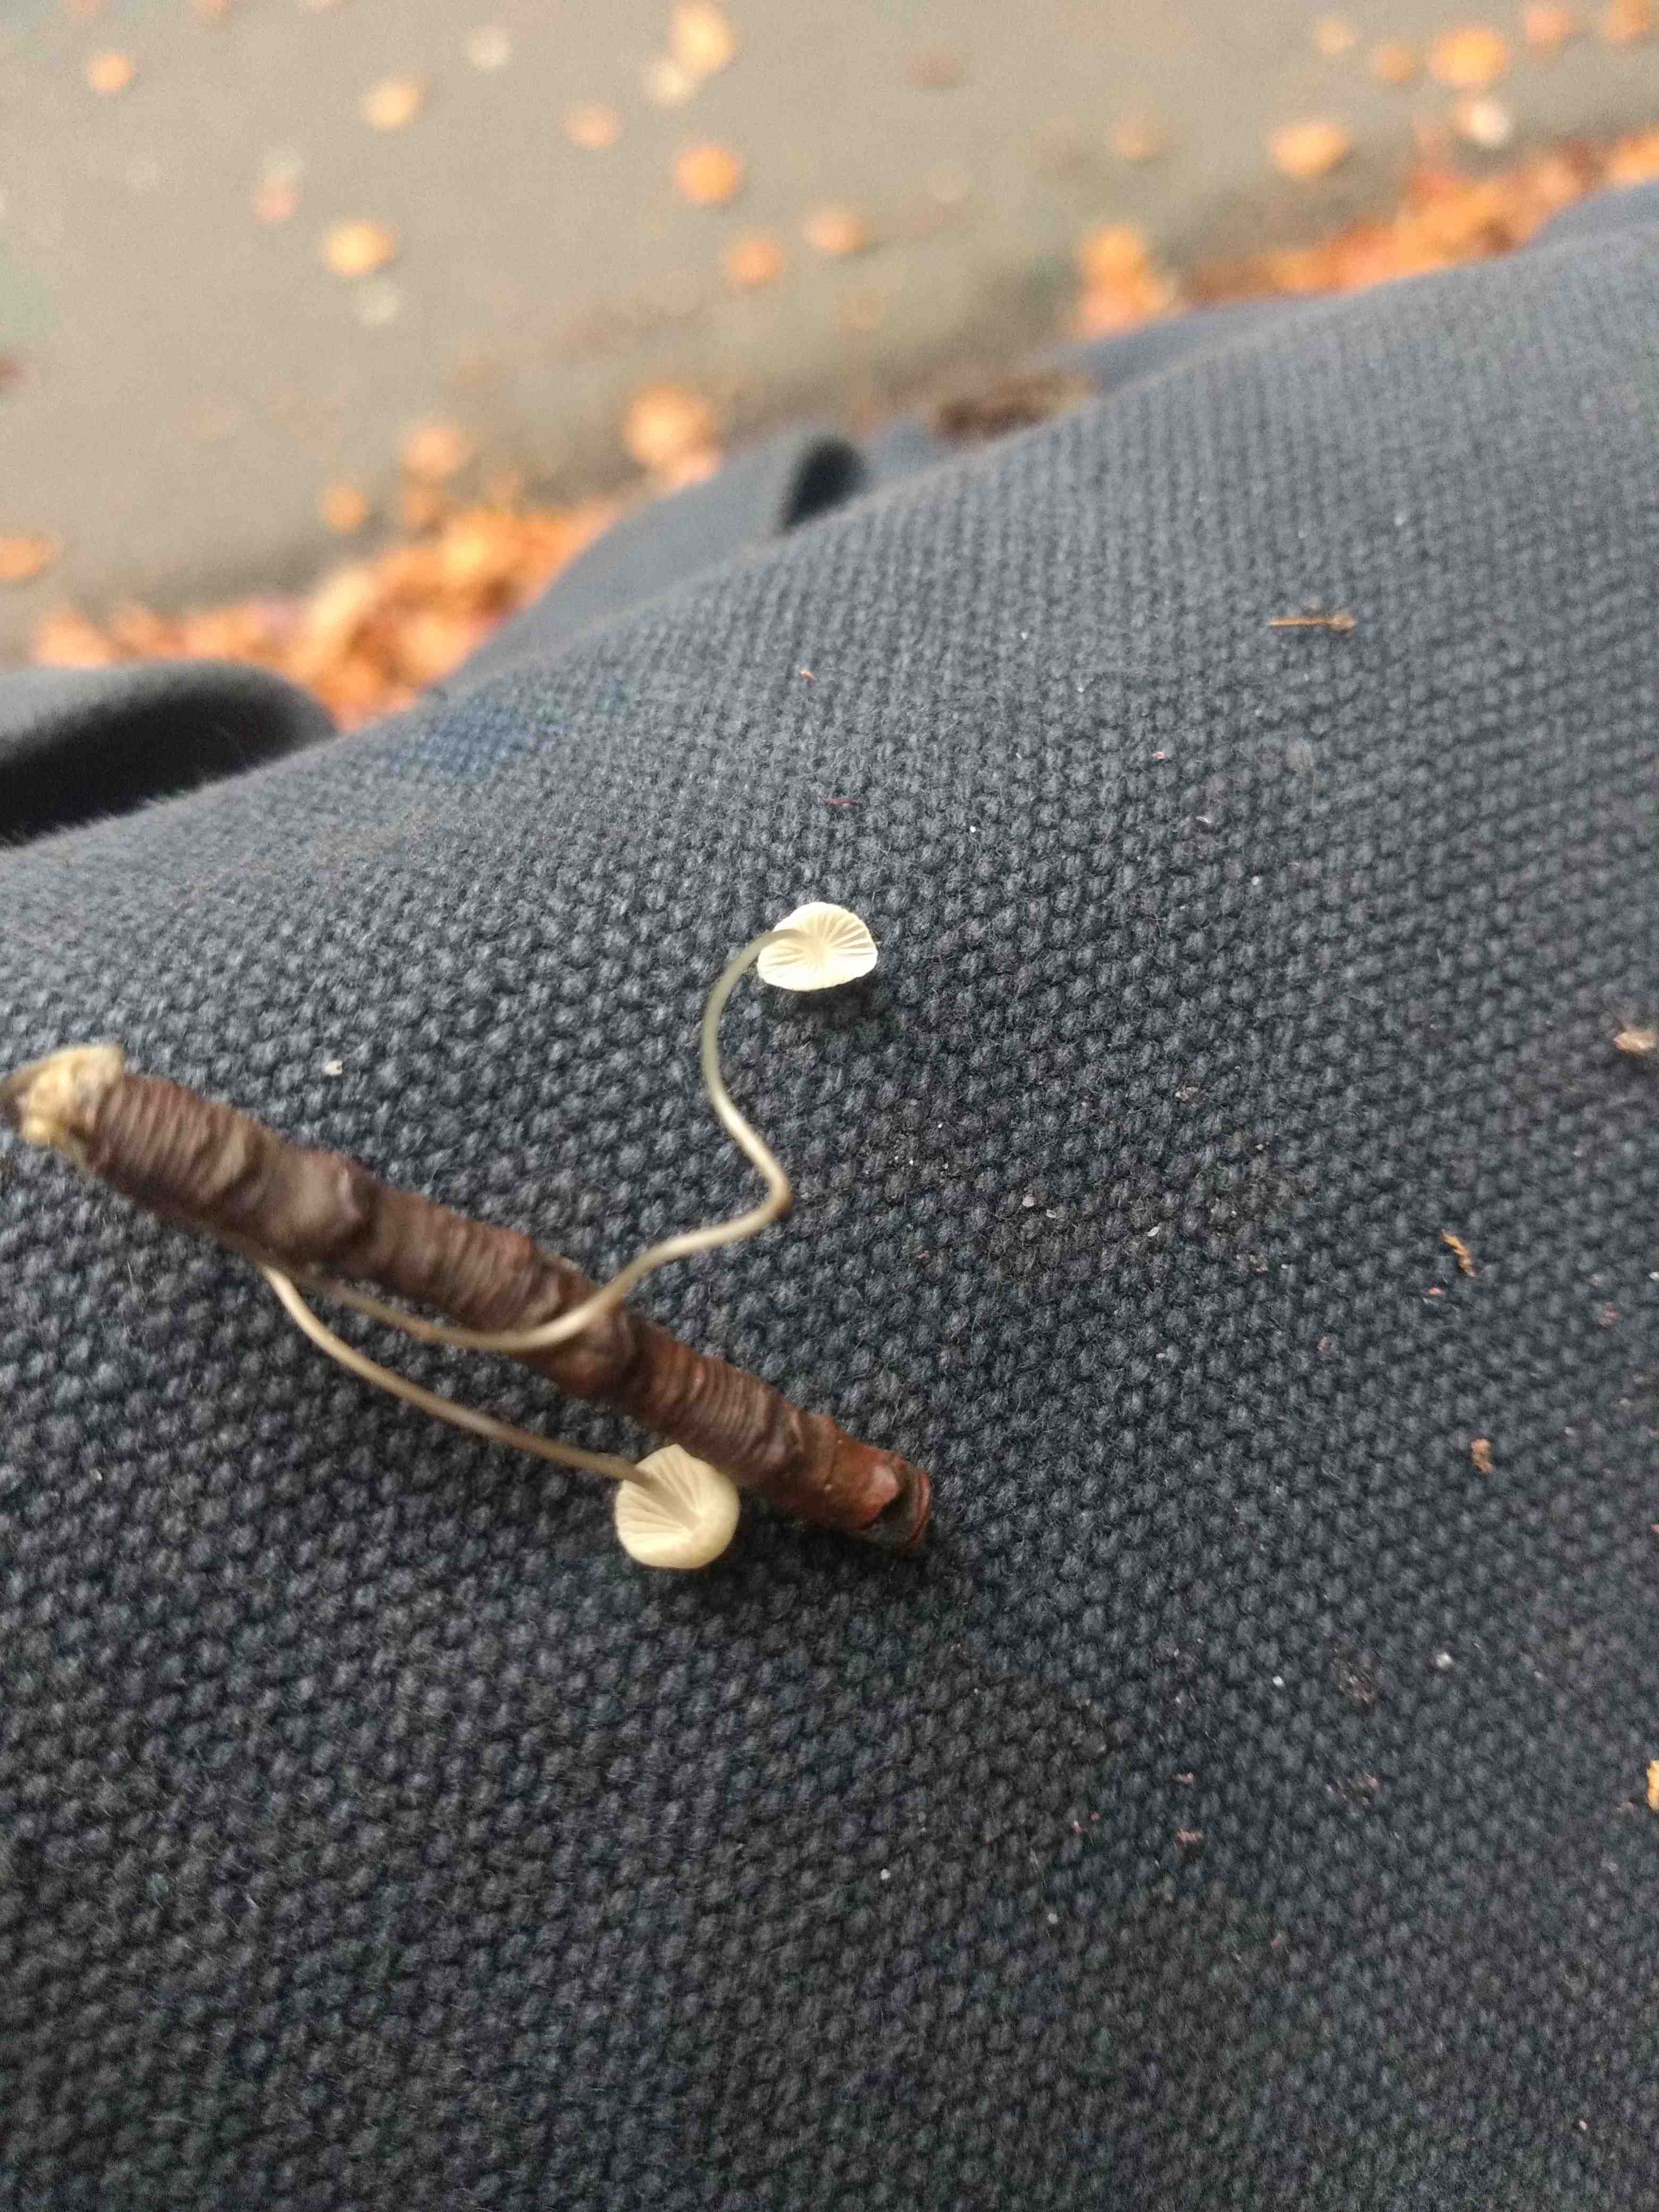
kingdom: Fungi
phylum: Basidiomycota
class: Agaricomycetes
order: Agaricales
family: Mycenaceae
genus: Mycena
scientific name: Mycena
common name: huesvamp
